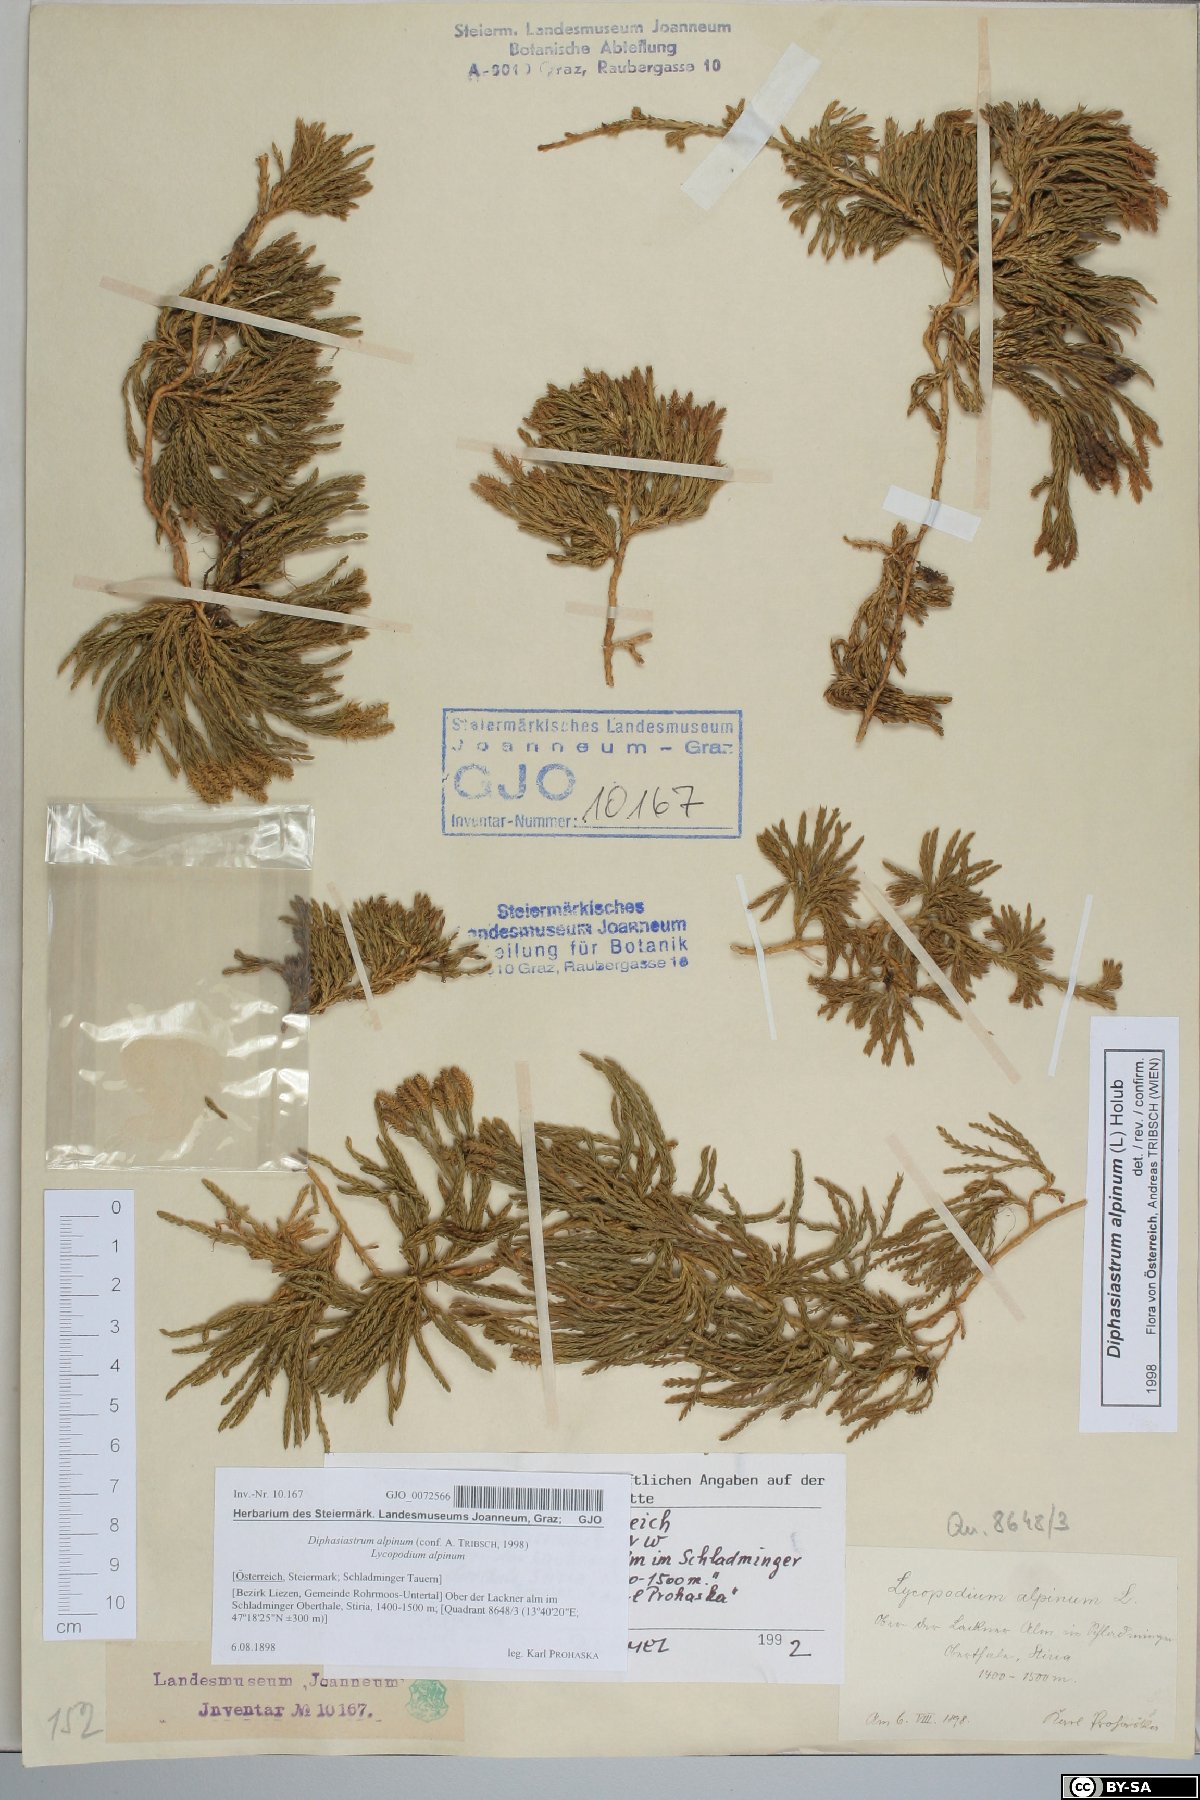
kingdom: Plantae
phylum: Tracheophyta
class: Lycopodiopsida
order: Lycopodiales
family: Lycopodiaceae
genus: Diphasiastrum
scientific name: Diphasiastrum alpinum
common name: Alpine clubmoss
